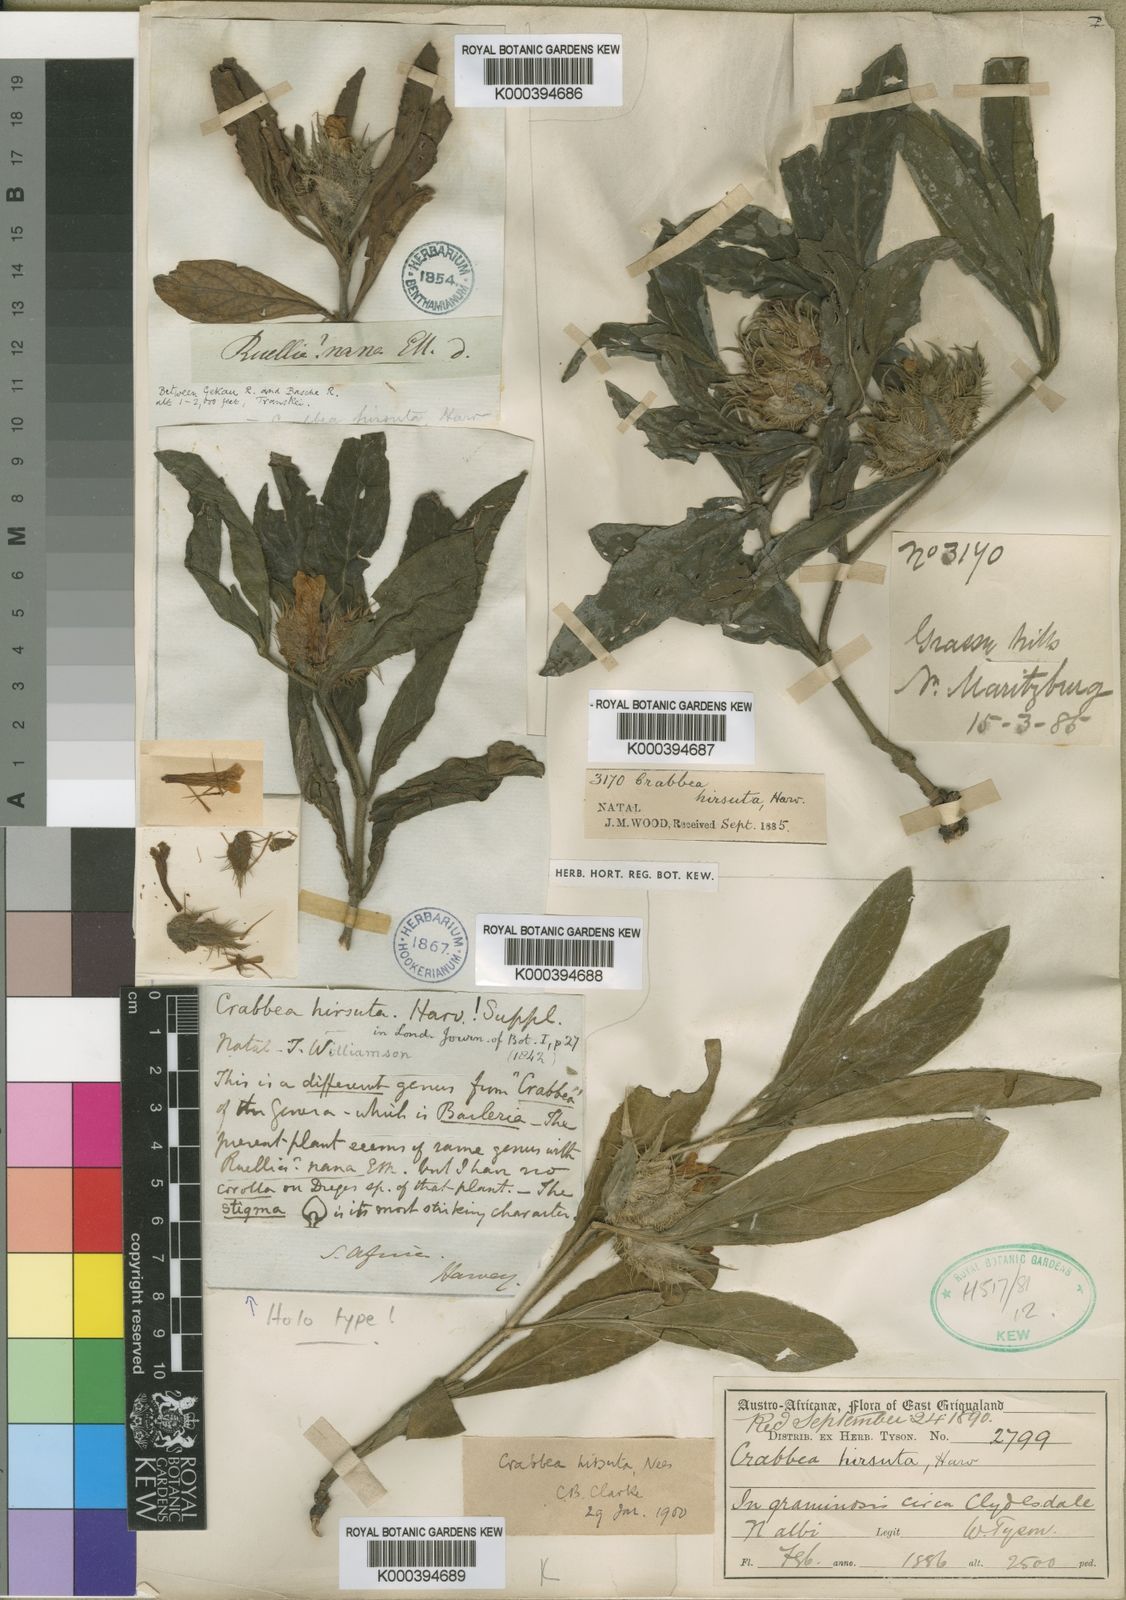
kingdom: Plantae
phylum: Tracheophyta
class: Magnoliopsida
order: Lamiales
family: Acanthaceae
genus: Crabbea
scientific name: Crabbea cirsioides
